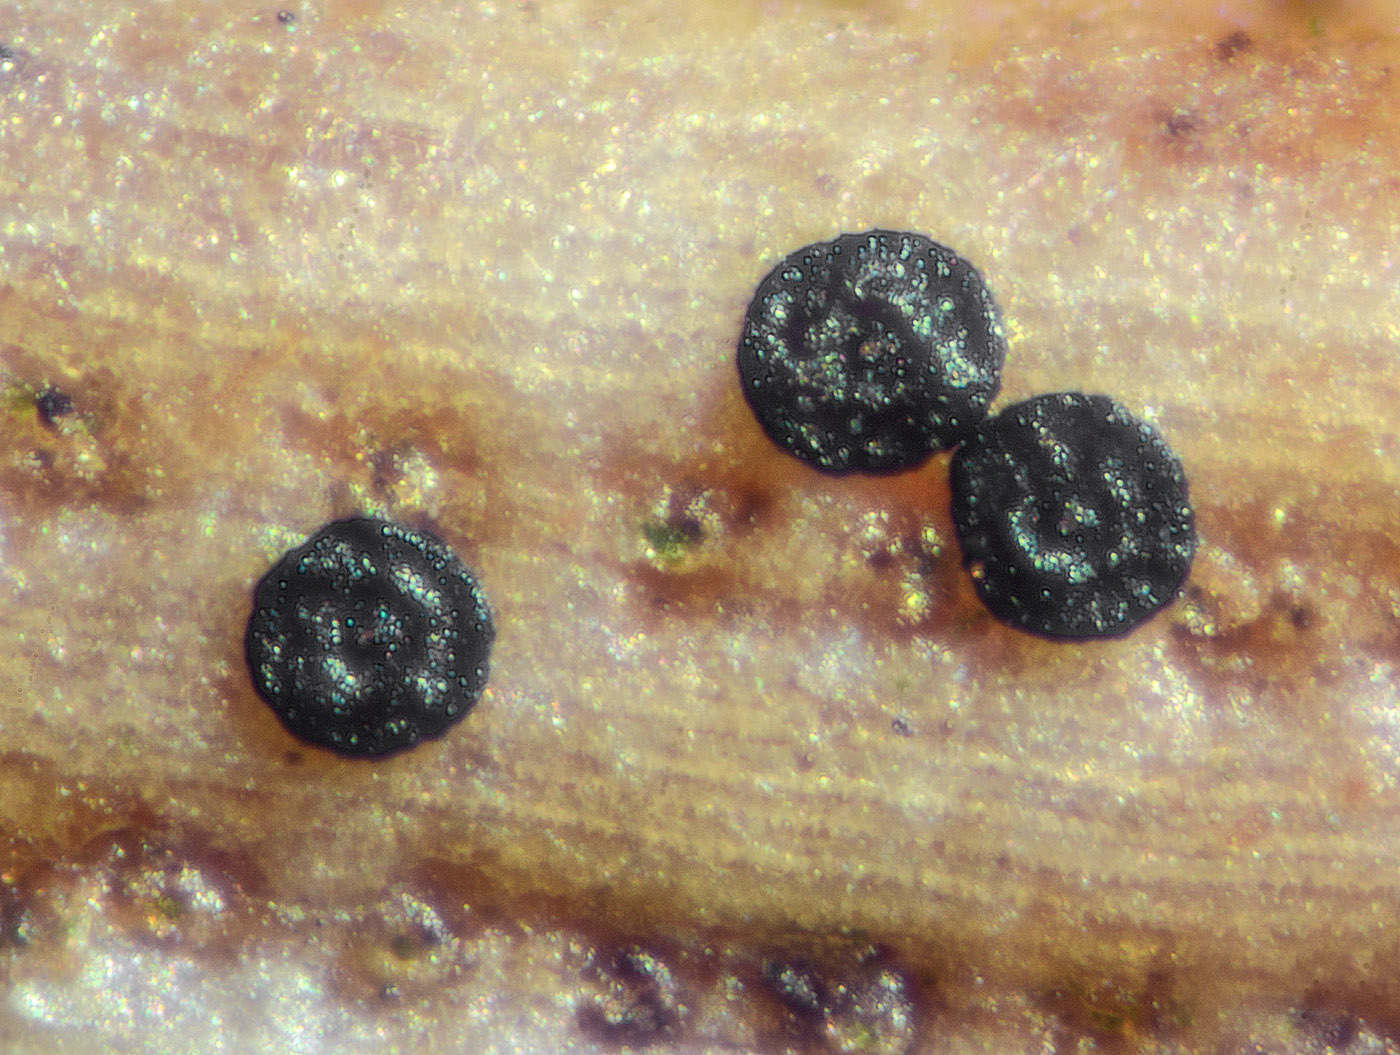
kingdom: Fungi
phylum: Ascomycota
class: Dothideomycetes
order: Microthyriales
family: Microthyriaceae
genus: Lichenopeltella
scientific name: Lichenopeltella pinophylla
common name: fyrrenåle-tykplet
